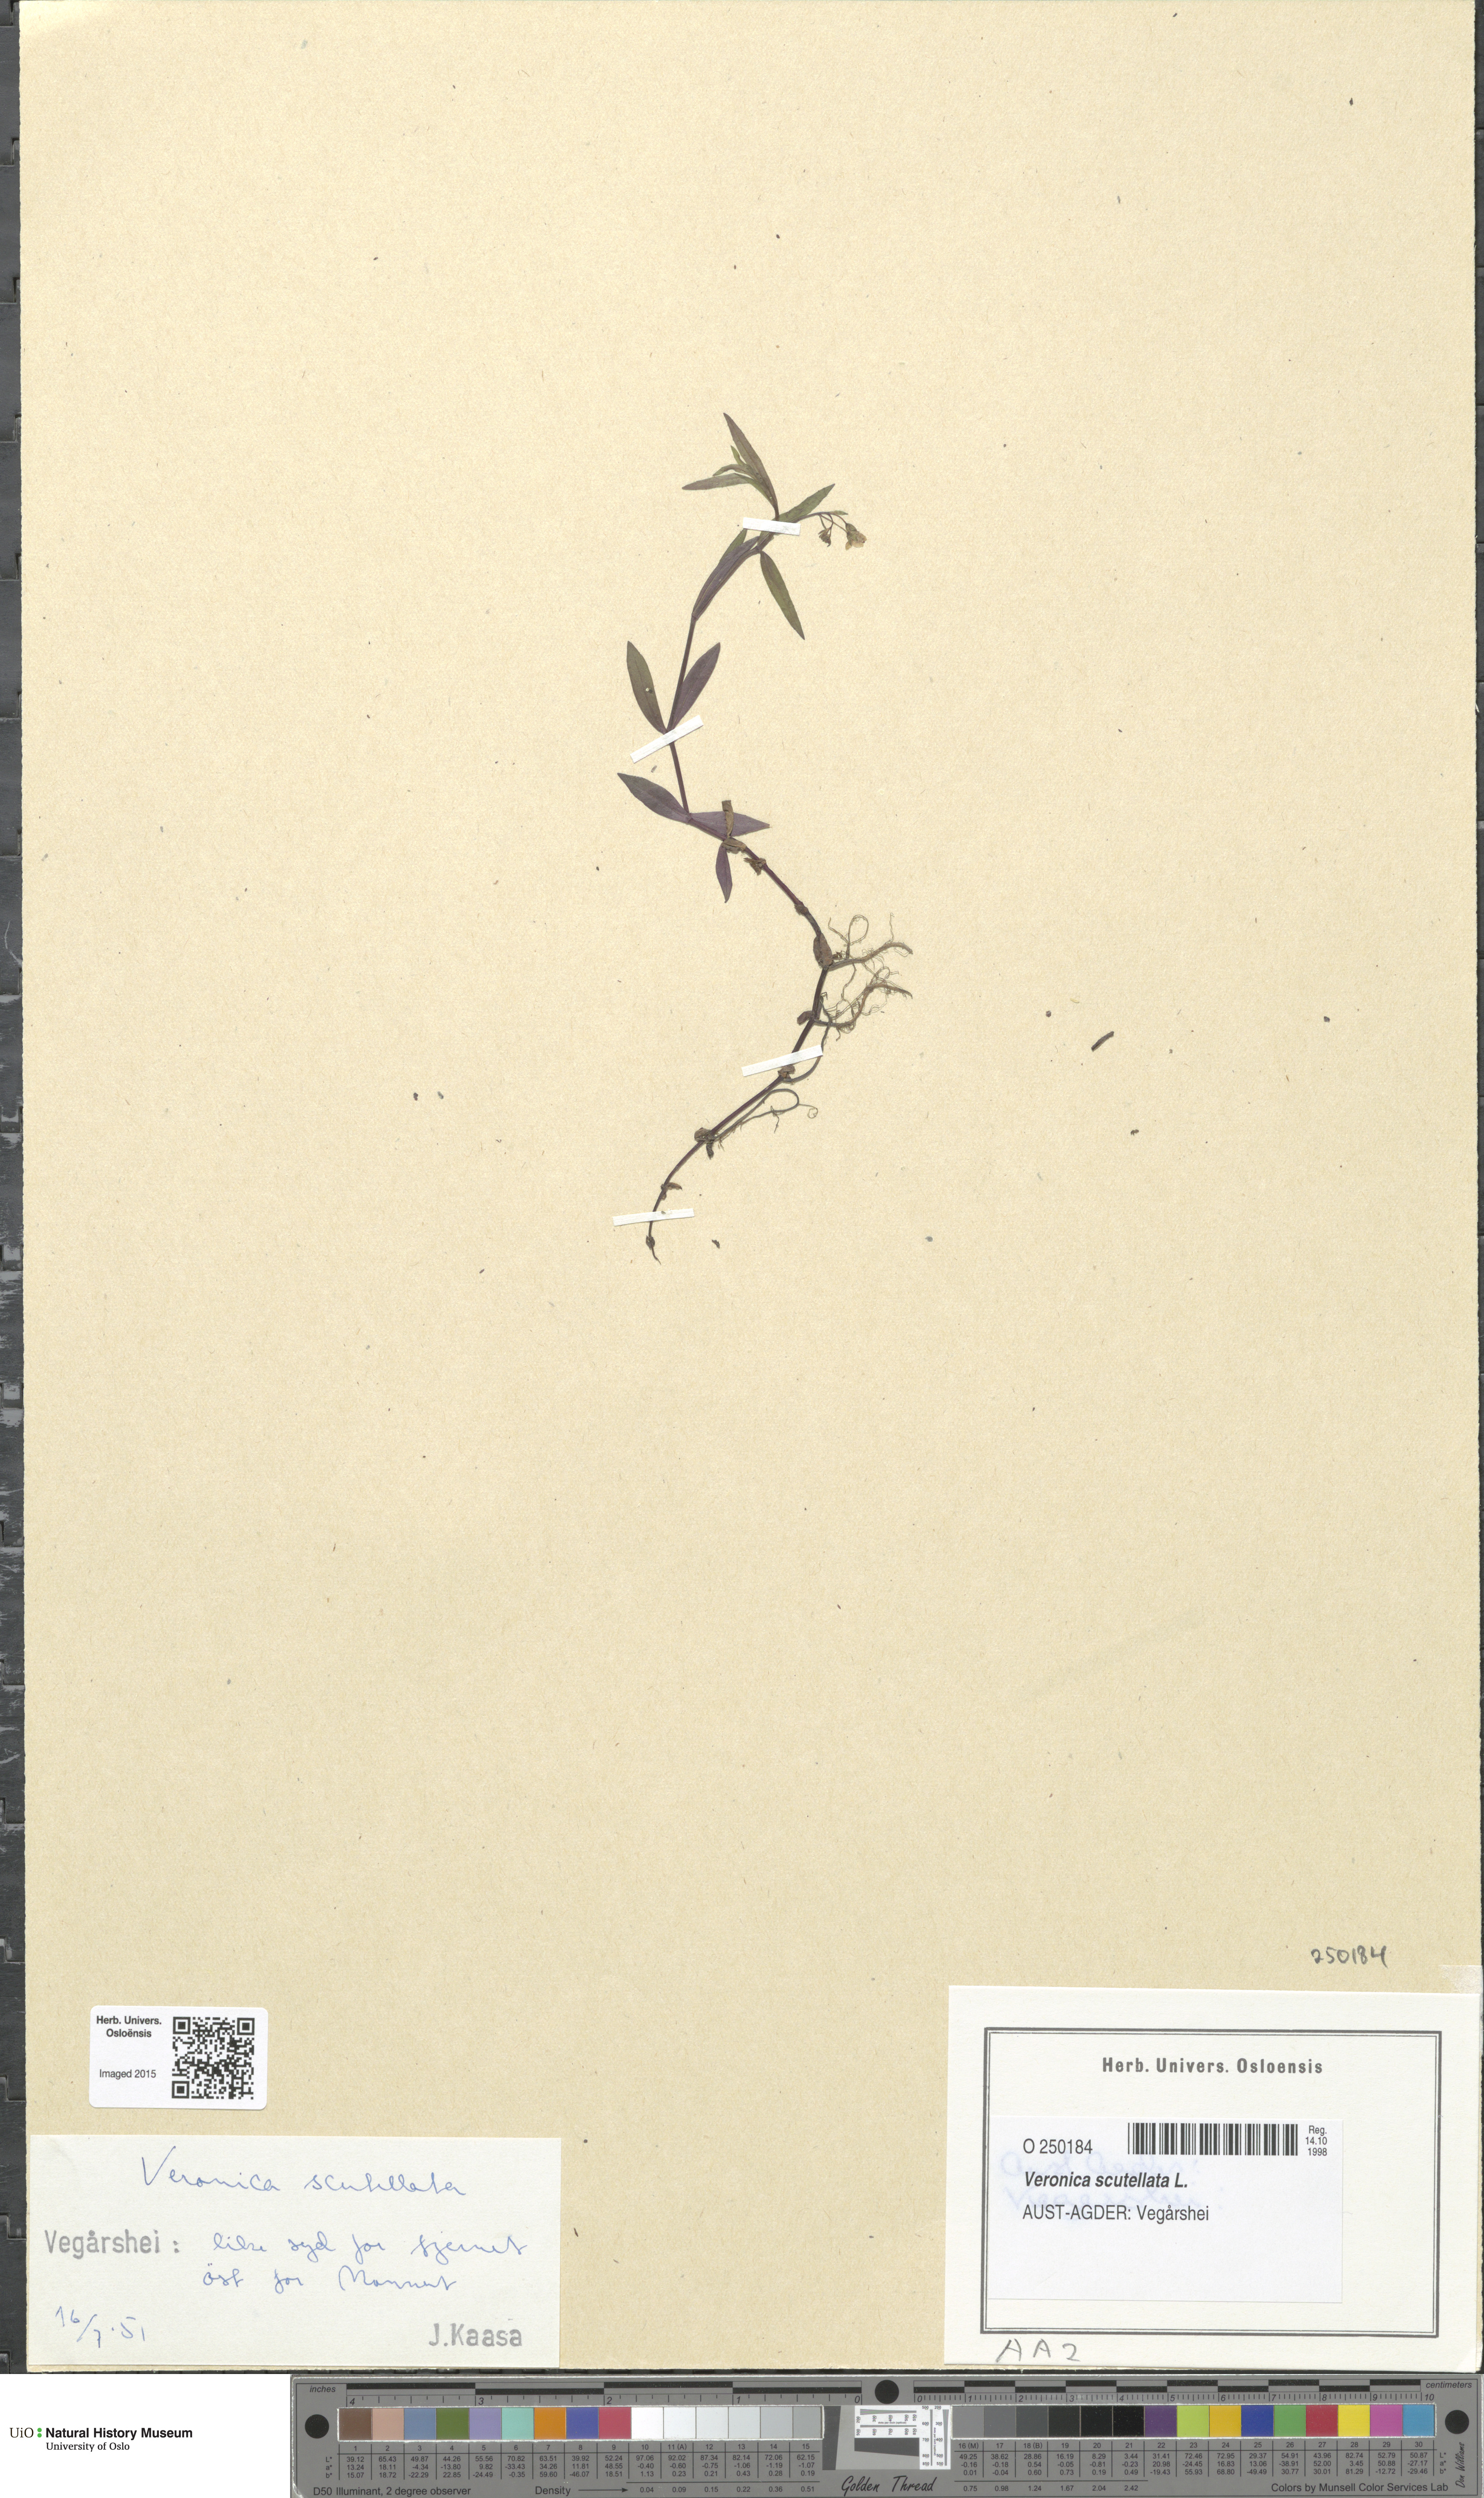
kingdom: Plantae
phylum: Tracheophyta
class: Magnoliopsida
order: Lamiales
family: Plantaginaceae
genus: Veronica
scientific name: Veronica scutellata
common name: Marsh speedwell
